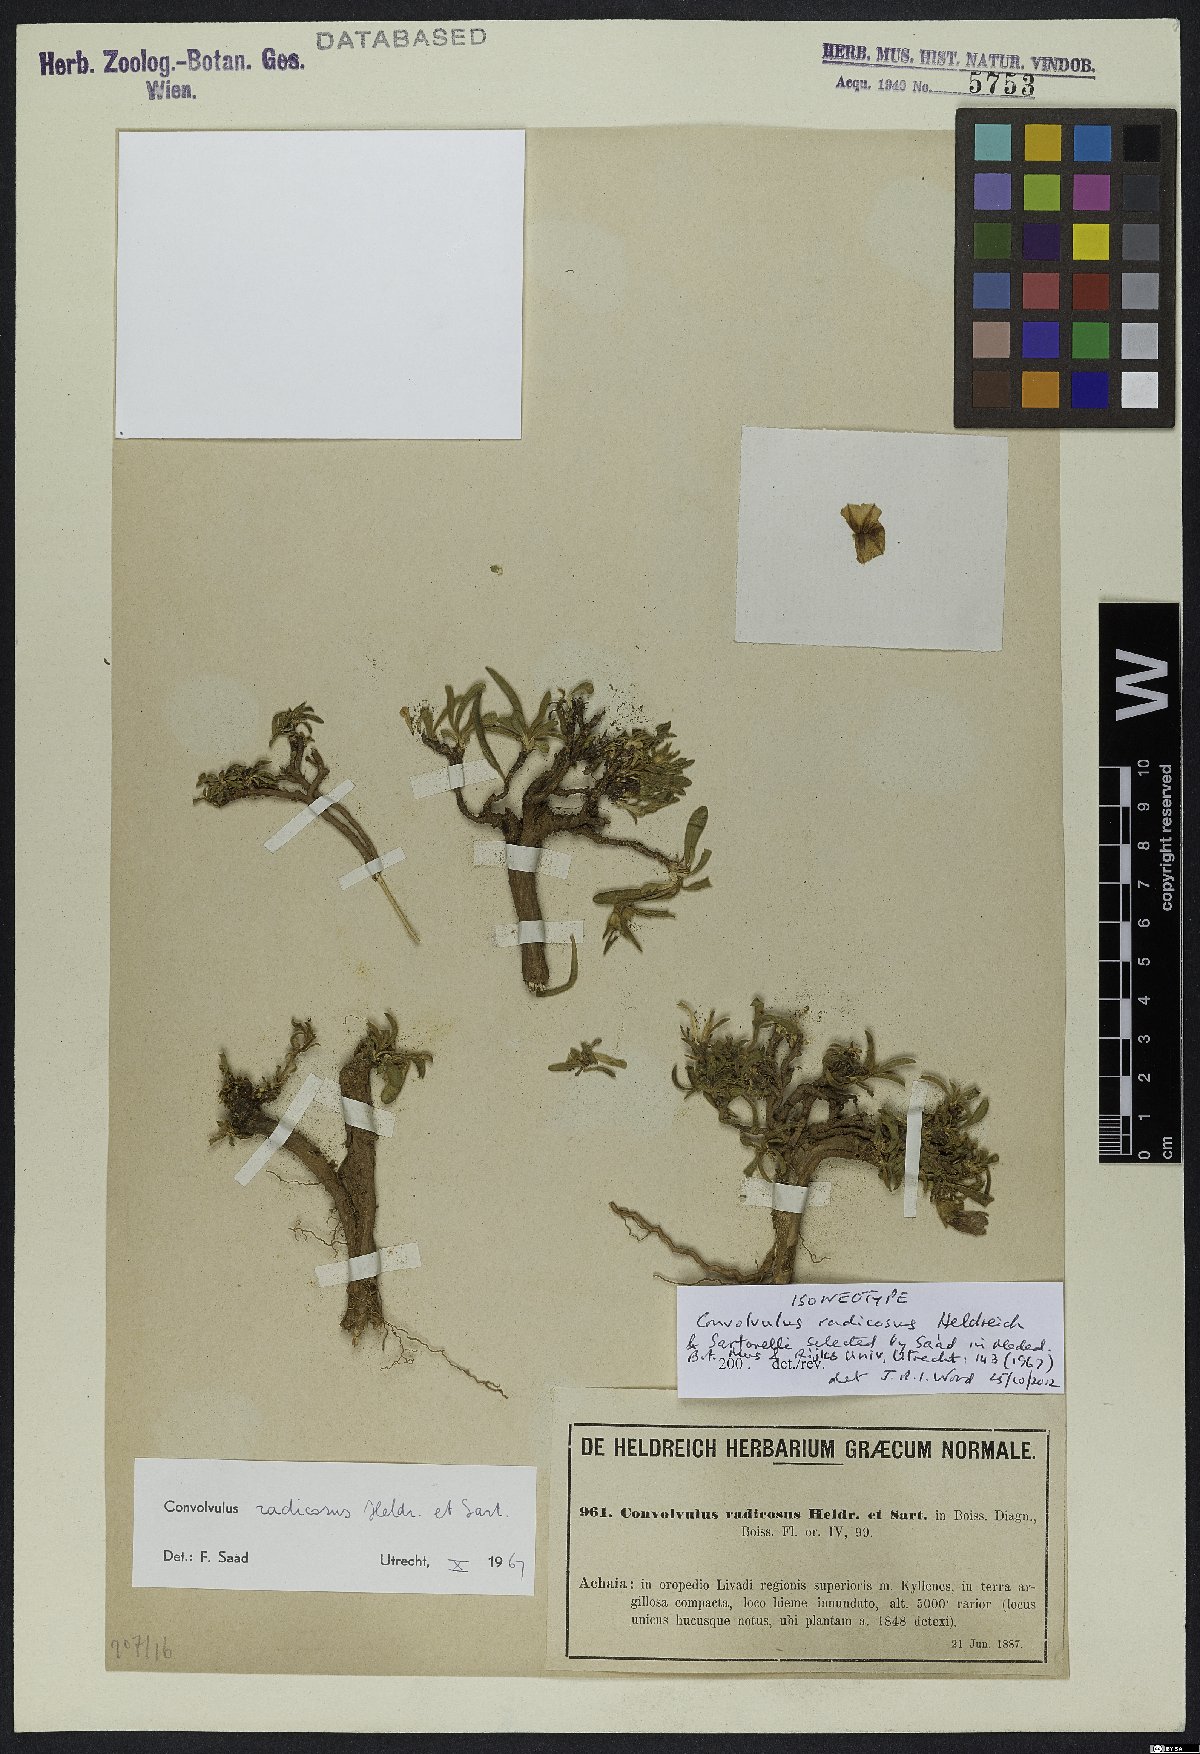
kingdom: Plantae
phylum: Tracheophyta
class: Magnoliopsida
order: Solanales
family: Convolvulaceae
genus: Convolvulus
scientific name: Convolvulus libanoticus
